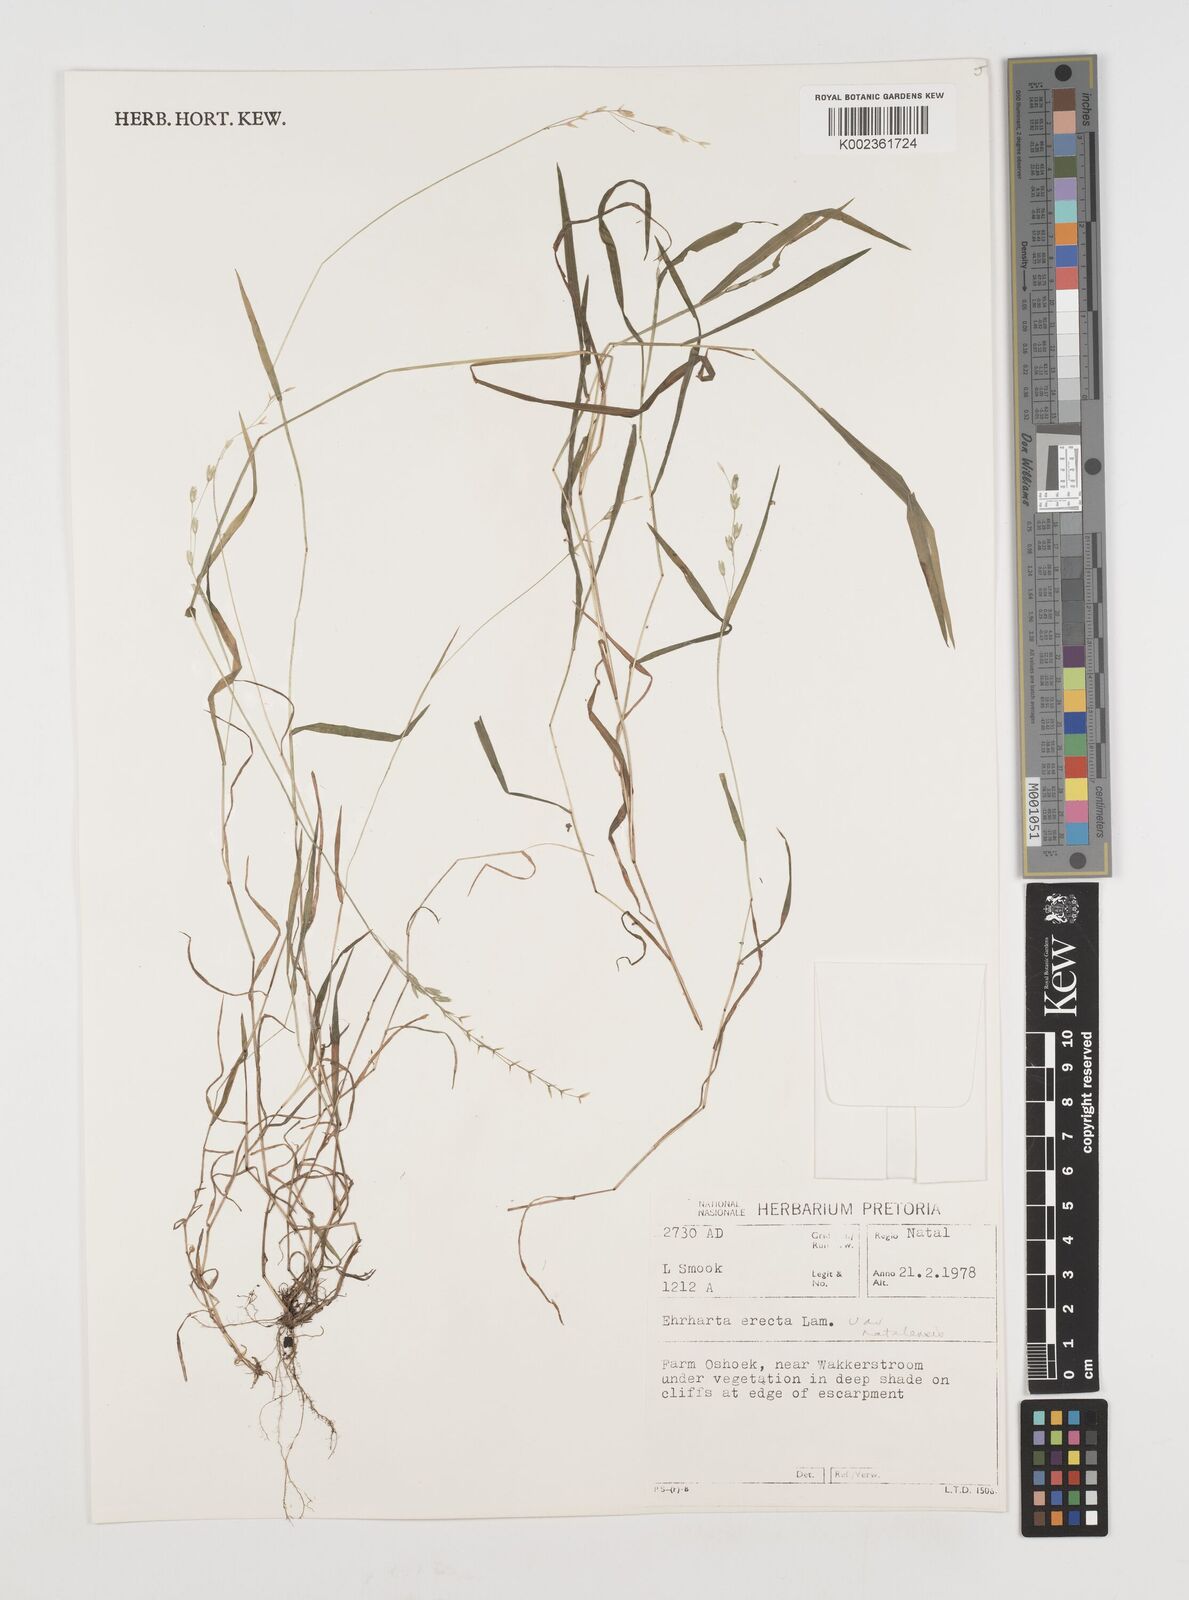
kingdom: Plantae
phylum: Tracheophyta
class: Liliopsida
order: Poales
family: Poaceae
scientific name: Poaceae
